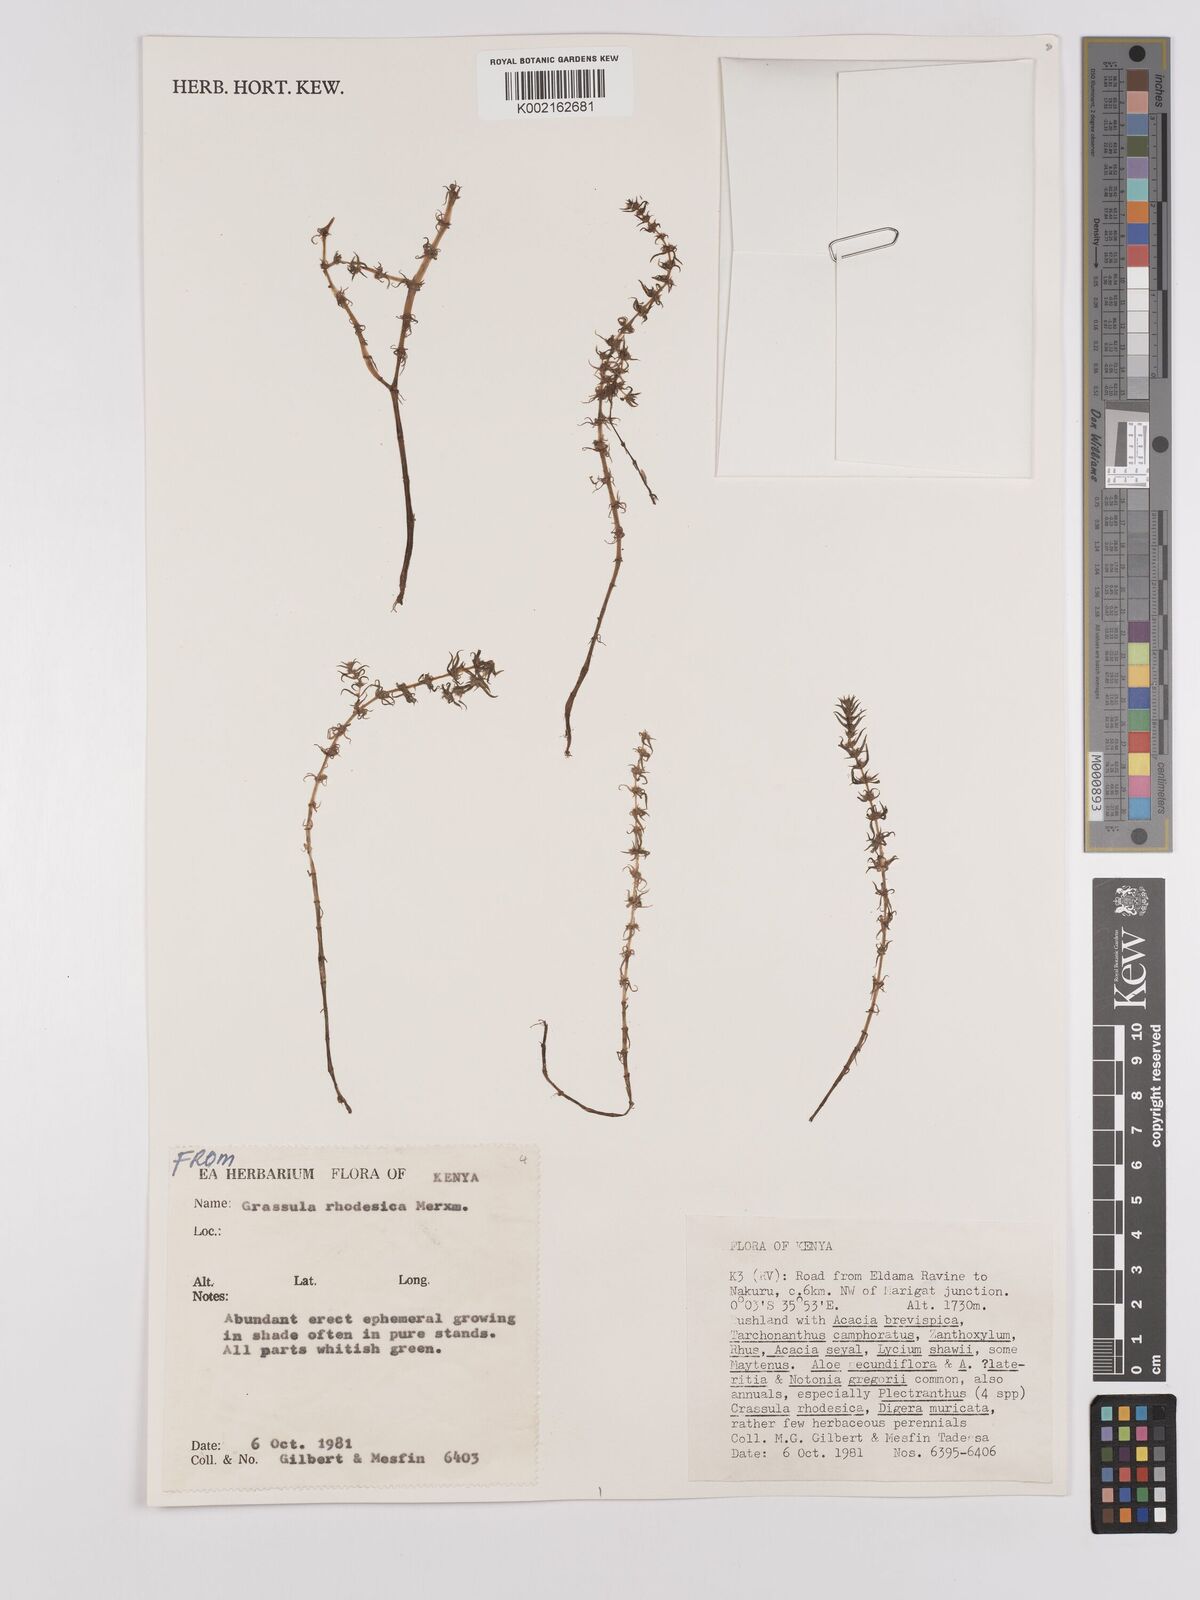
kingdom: Plantae
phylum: Tracheophyta
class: Magnoliopsida
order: Saxifragales
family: Crassulaceae
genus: Crassula
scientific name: Crassula rhodesica
